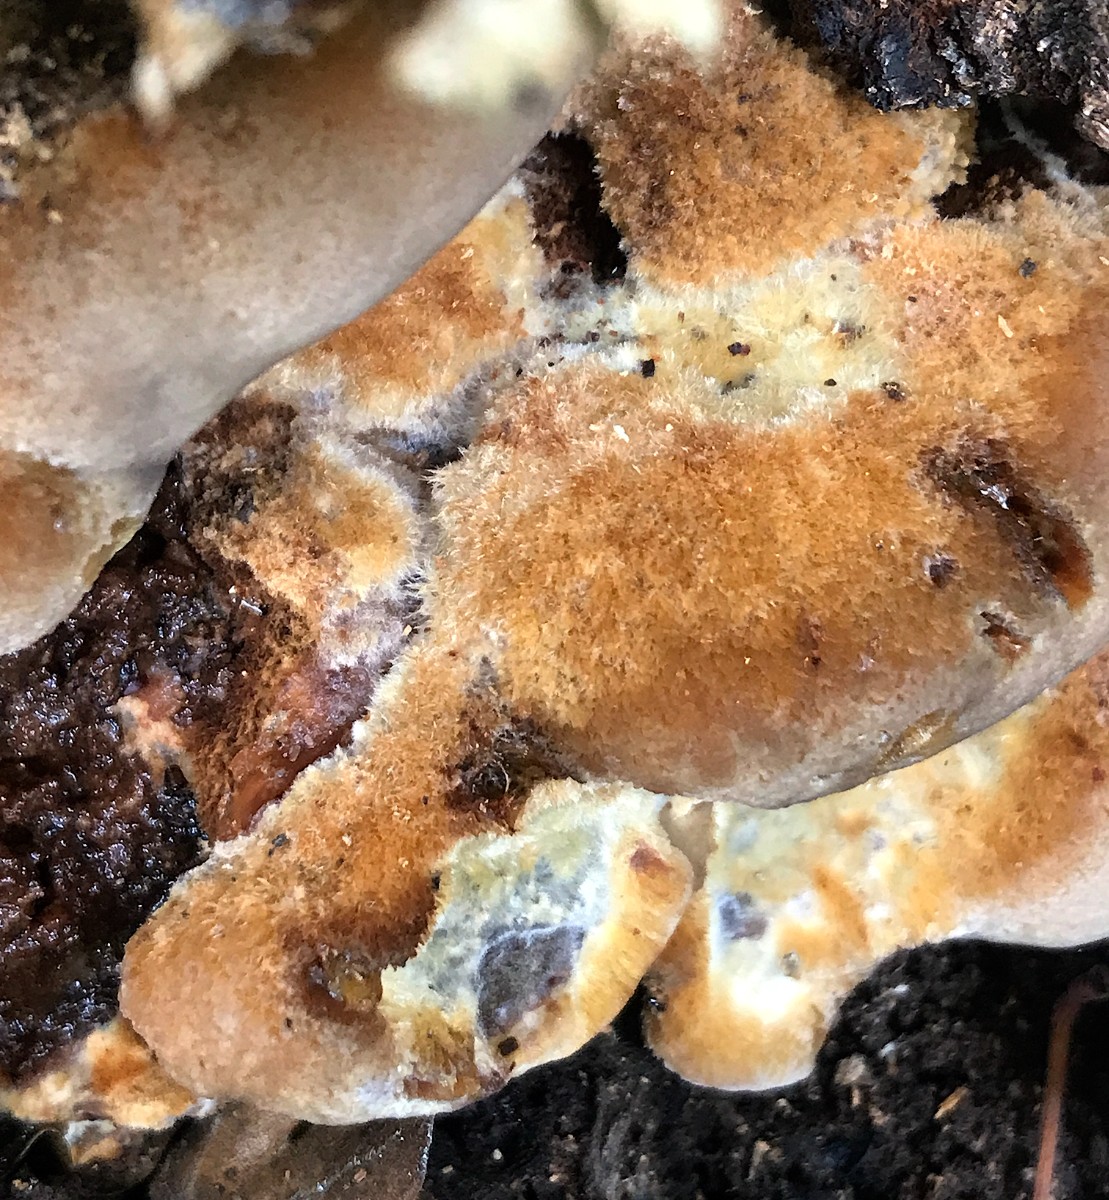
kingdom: Fungi
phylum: Basidiomycota
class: Agaricomycetes
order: Hymenochaetales
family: Hymenochaetaceae
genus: Inonotus
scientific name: Inonotus cuticularis
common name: kroghåret spejlporesvamp
